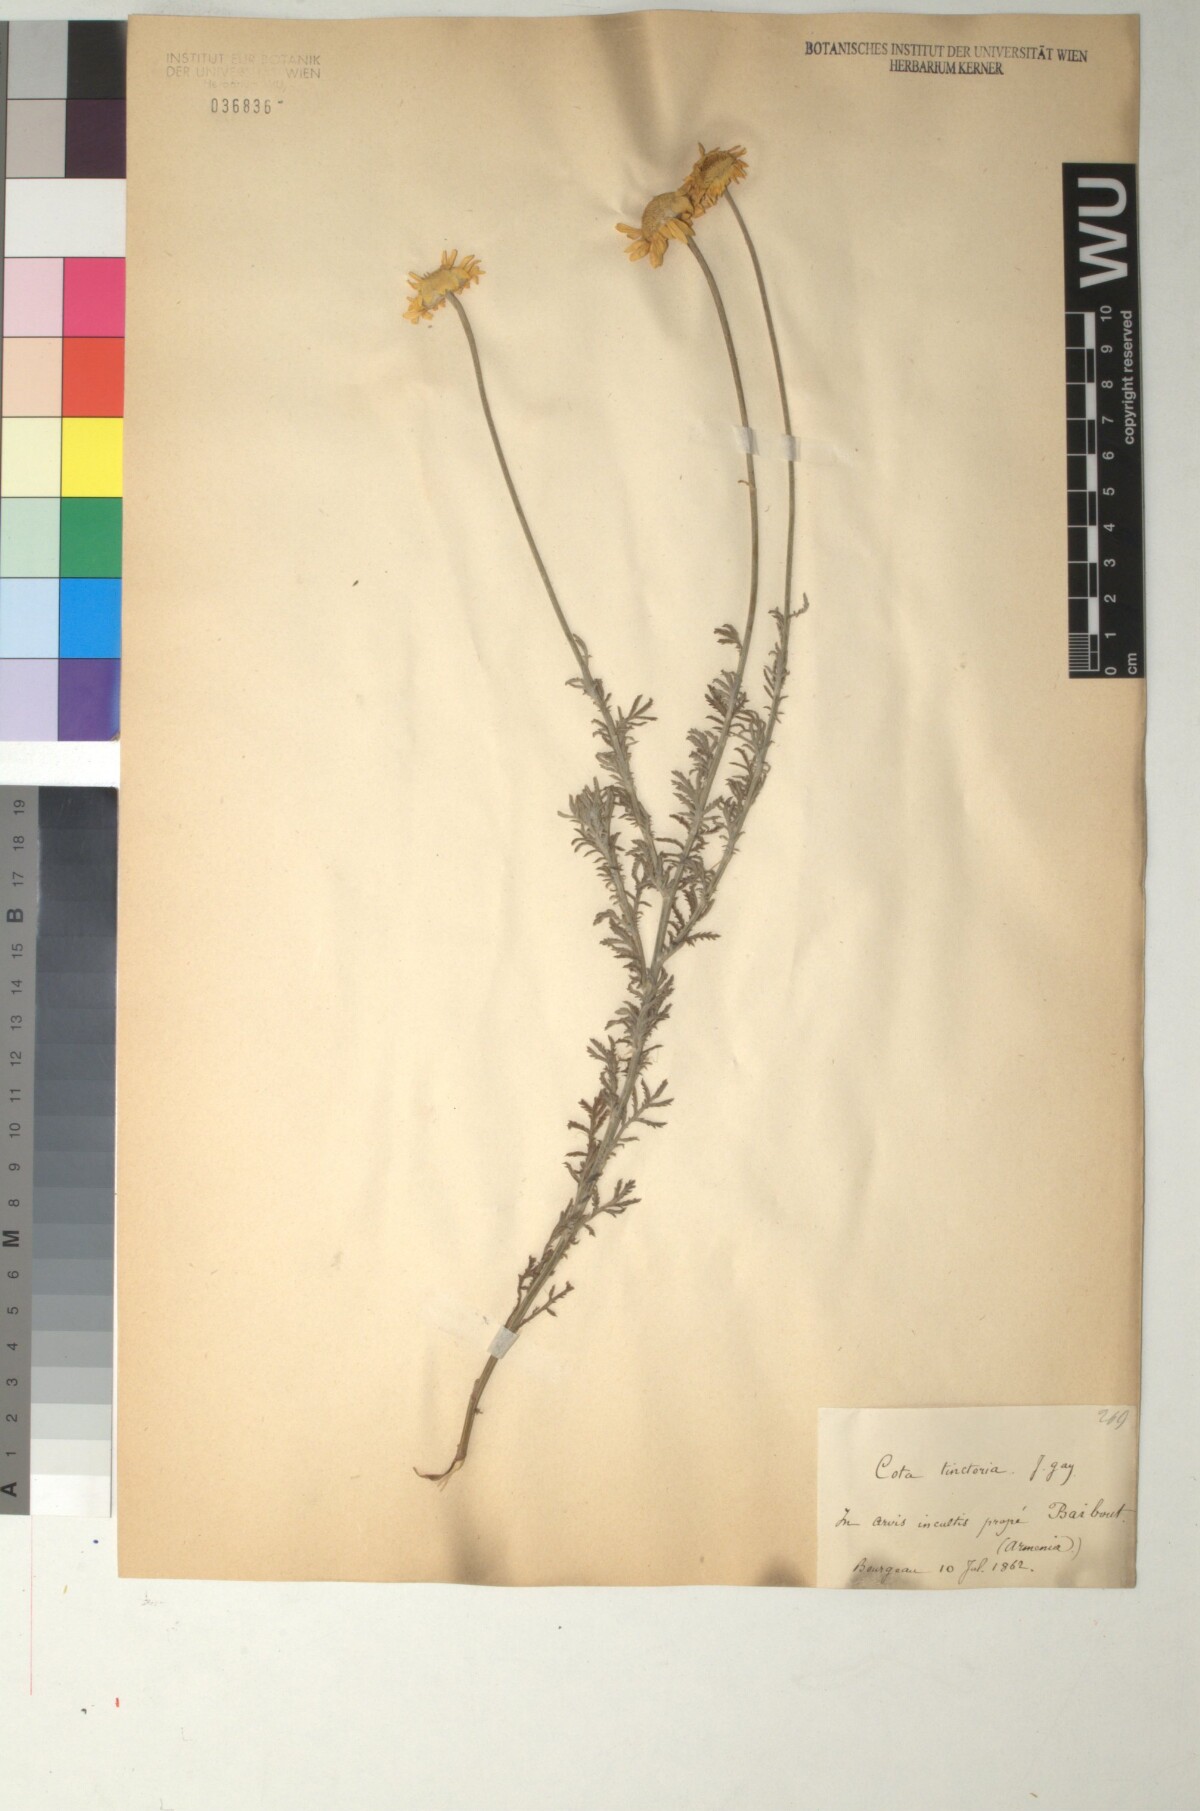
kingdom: Plantae
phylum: Tracheophyta
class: Magnoliopsida
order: Asterales
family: Asteraceae
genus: Cota
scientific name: Cota tinctoria
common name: Golden chamomile
